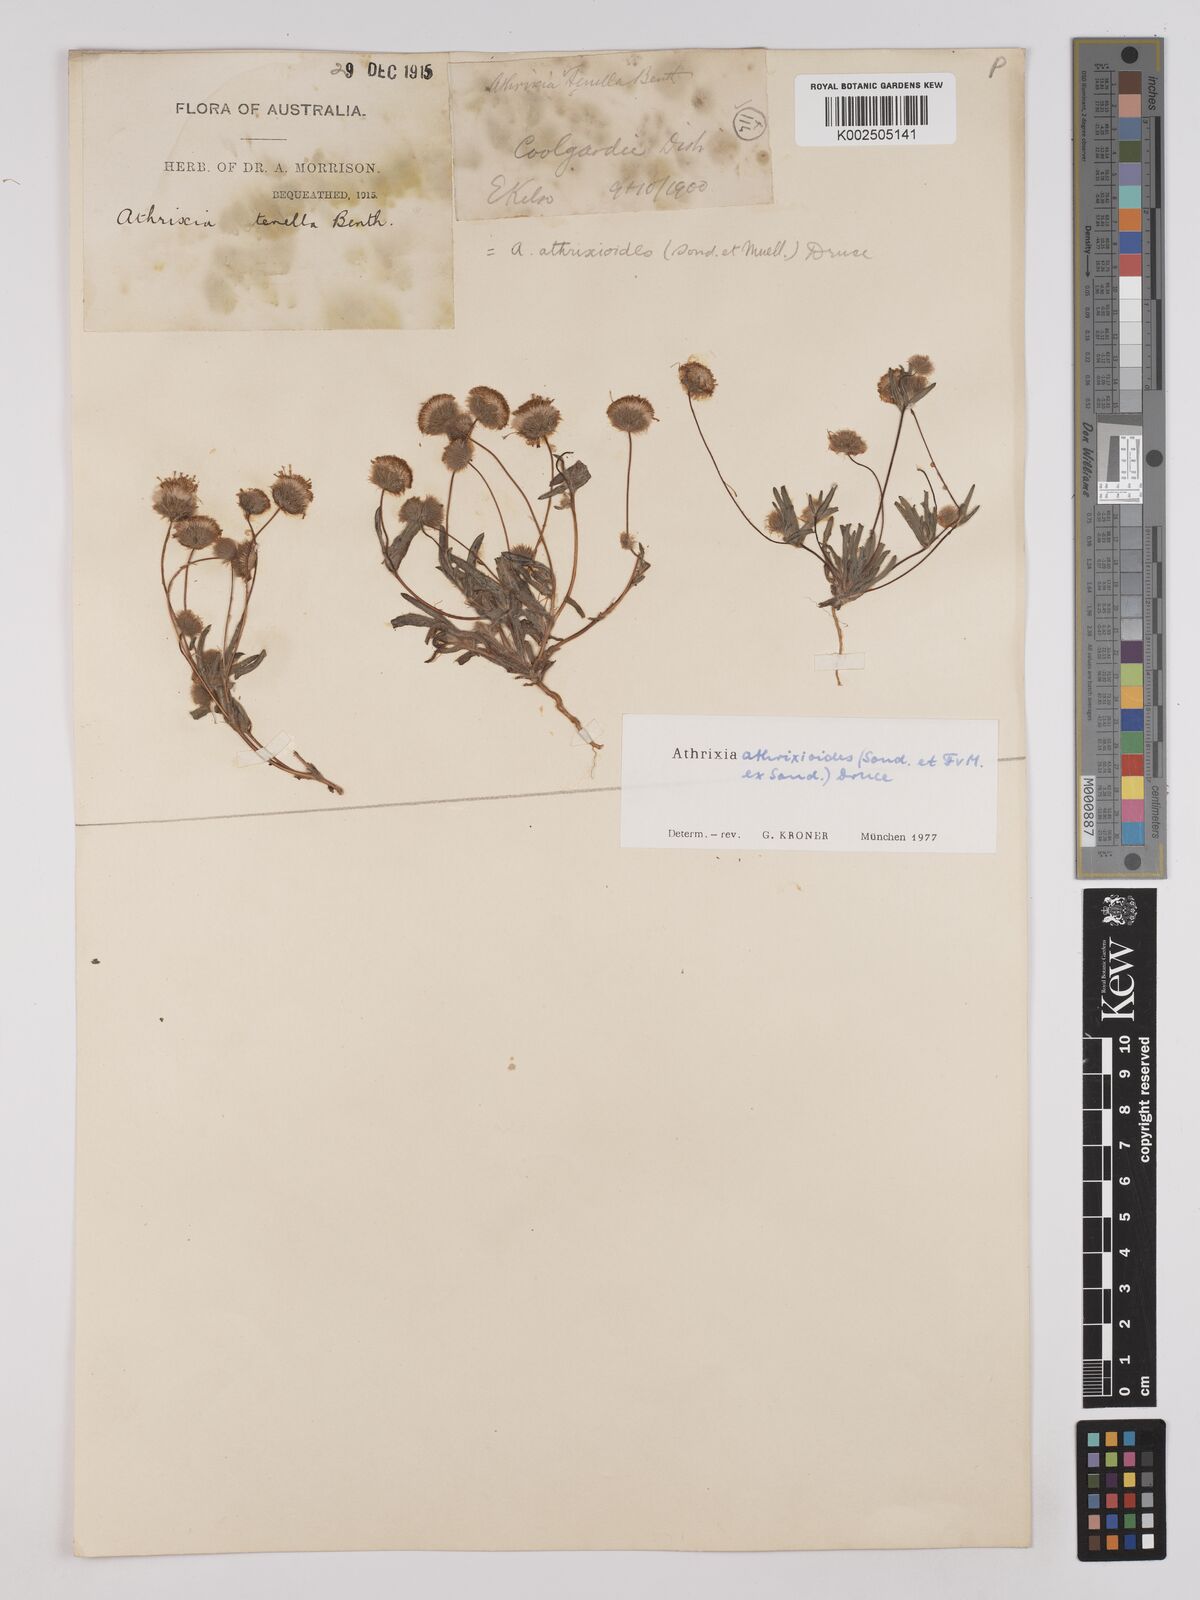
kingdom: Plantae
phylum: Tracheophyta
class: Magnoliopsida
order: Asterales
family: Asteraceae
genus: Asteridea
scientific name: Asteridea athrixioides
